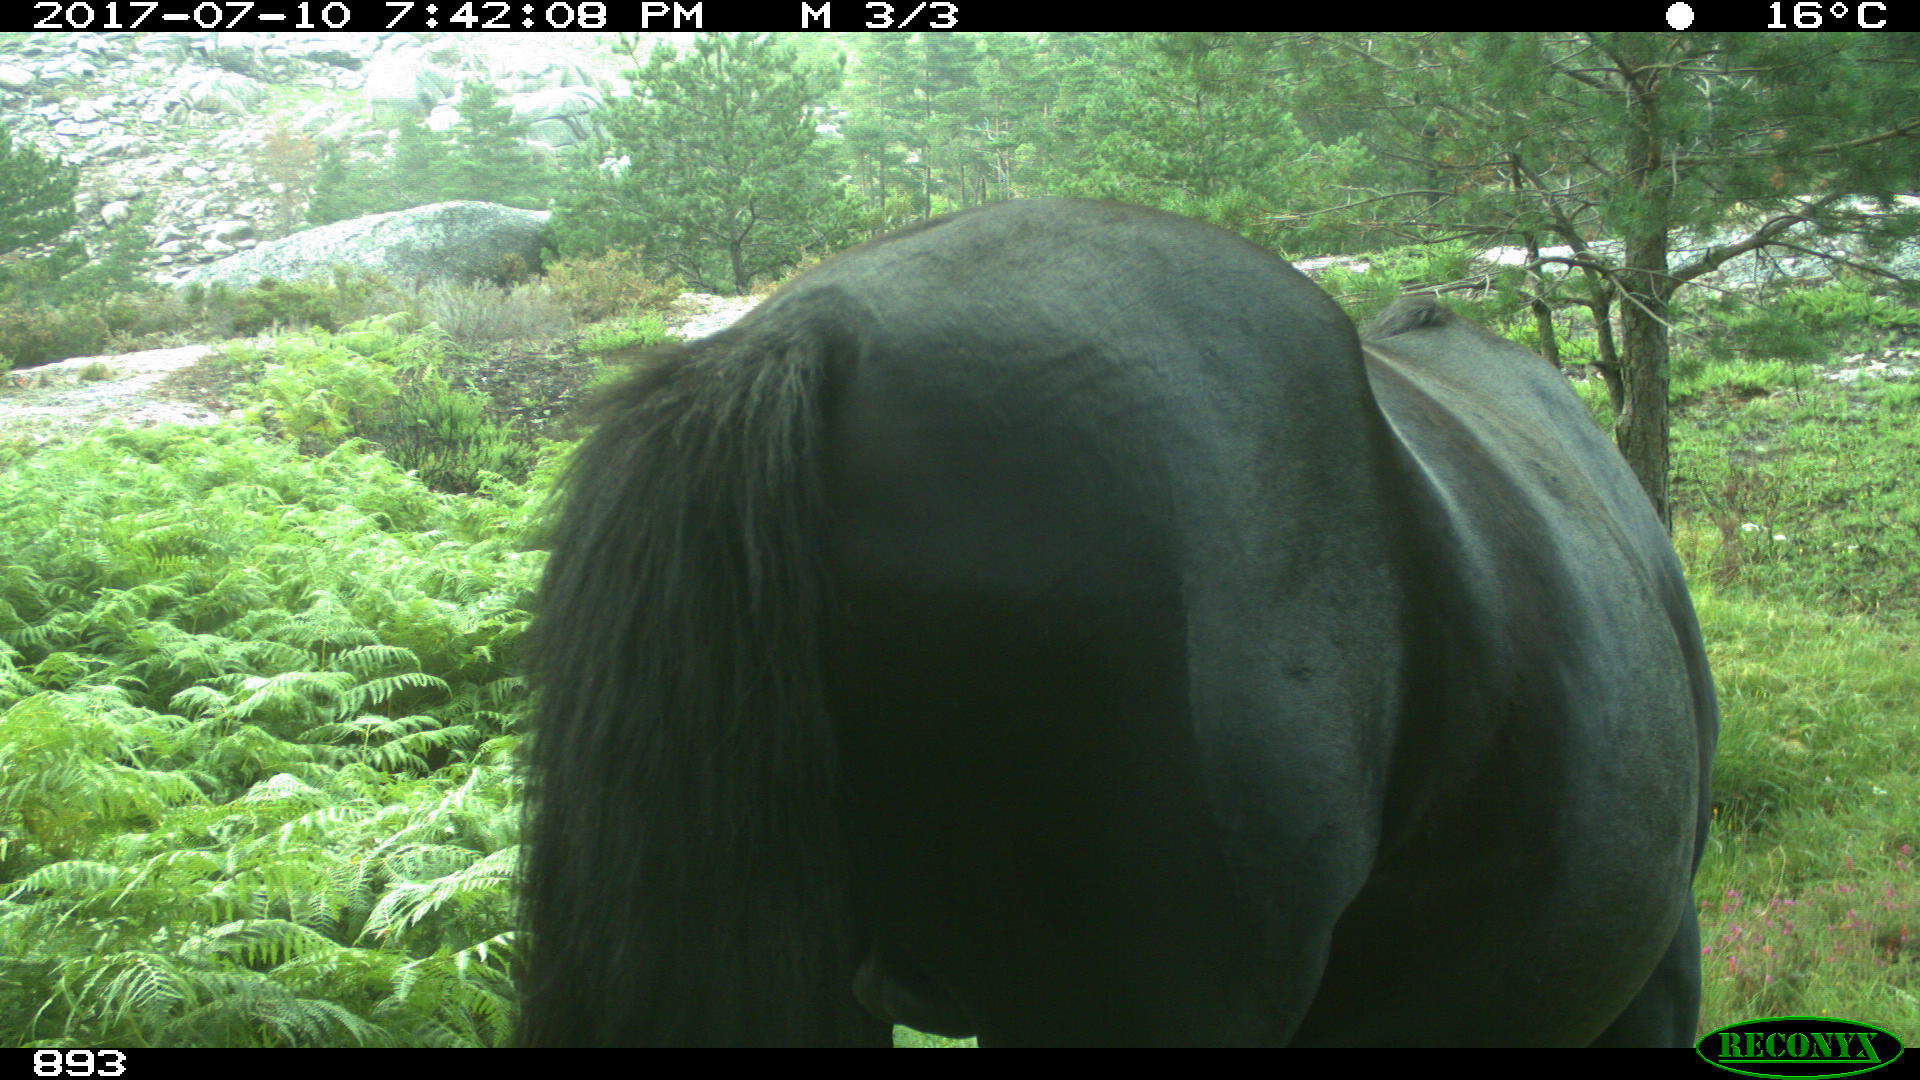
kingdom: Animalia
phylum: Chordata
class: Mammalia
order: Perissodactyla
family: Equidae
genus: Equus
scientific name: Equus caballus
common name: Horse
